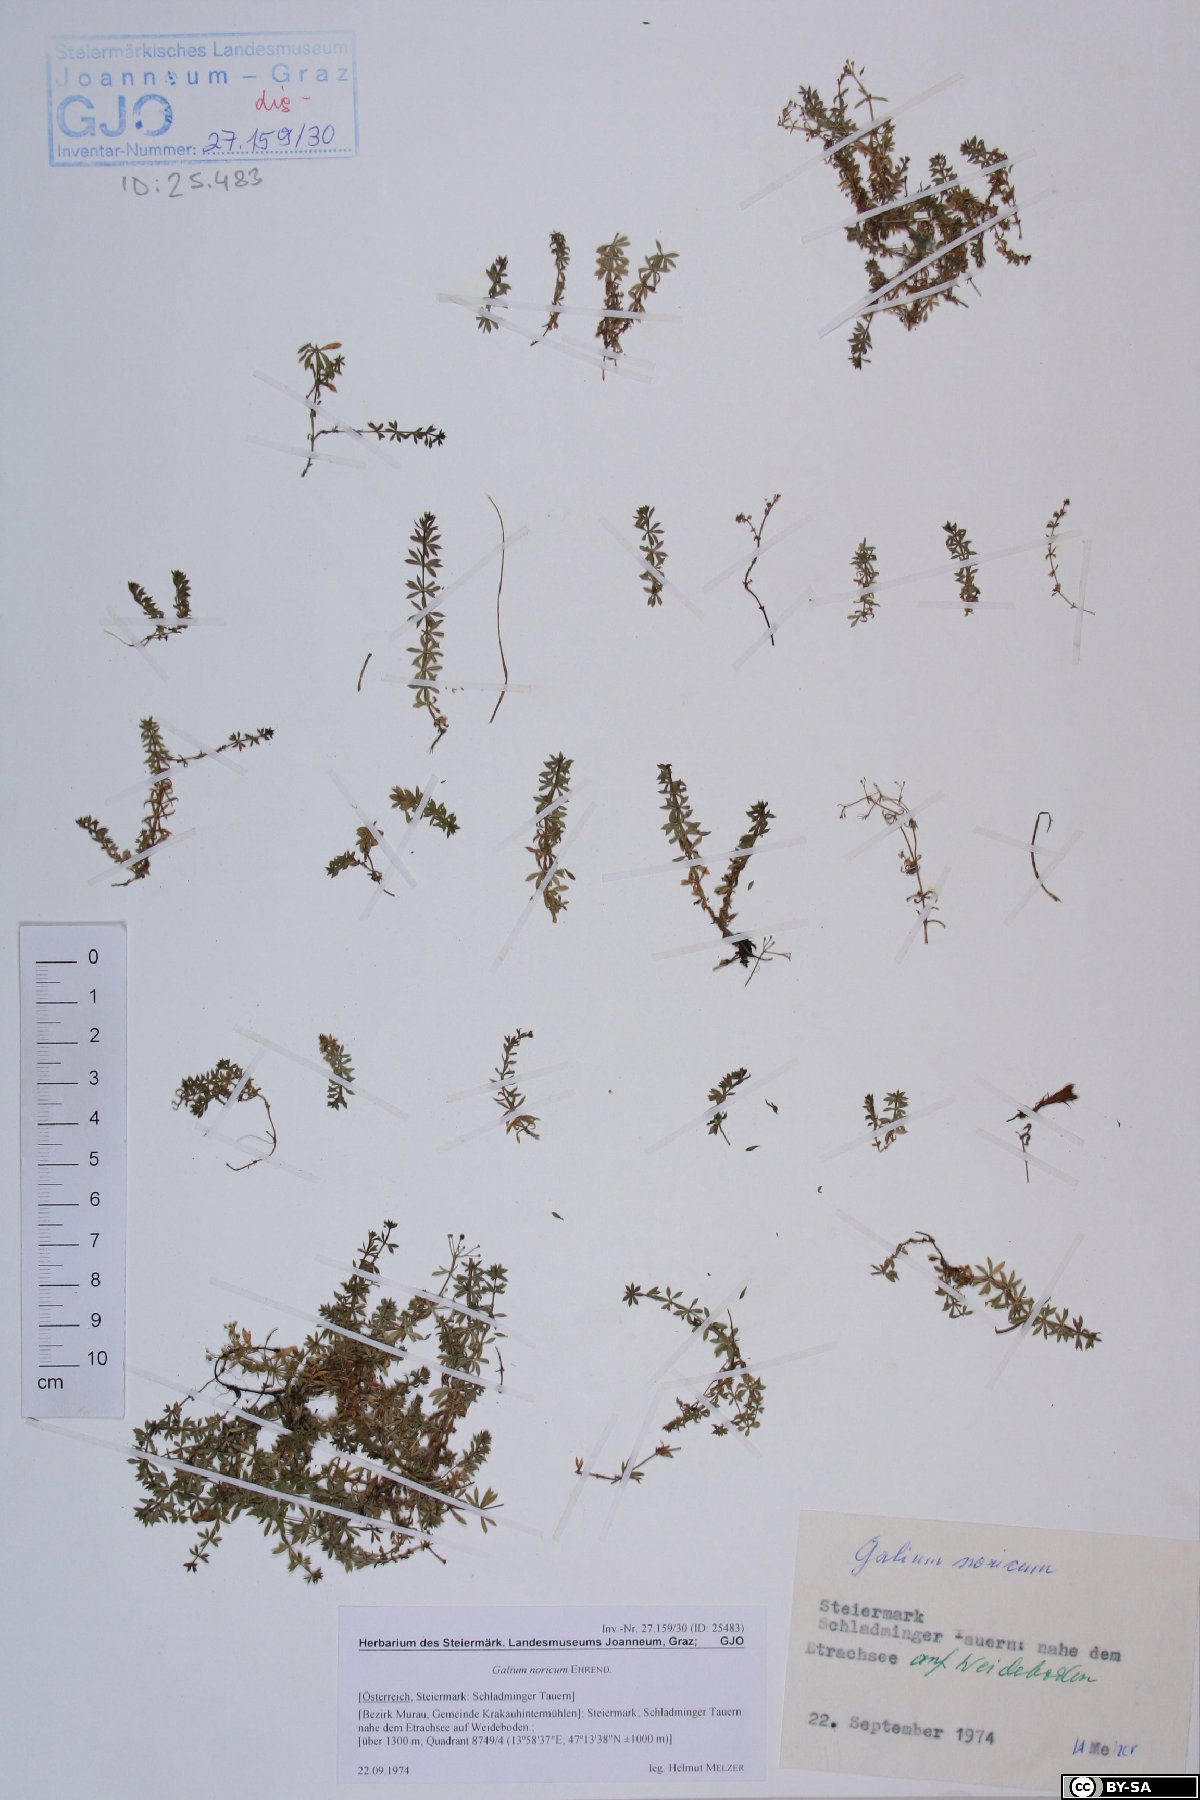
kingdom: Plantae
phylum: Tracheophyta
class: Magnoliopsida
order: Gentianales
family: Rubiaceae
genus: Galium
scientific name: Galium noricum
